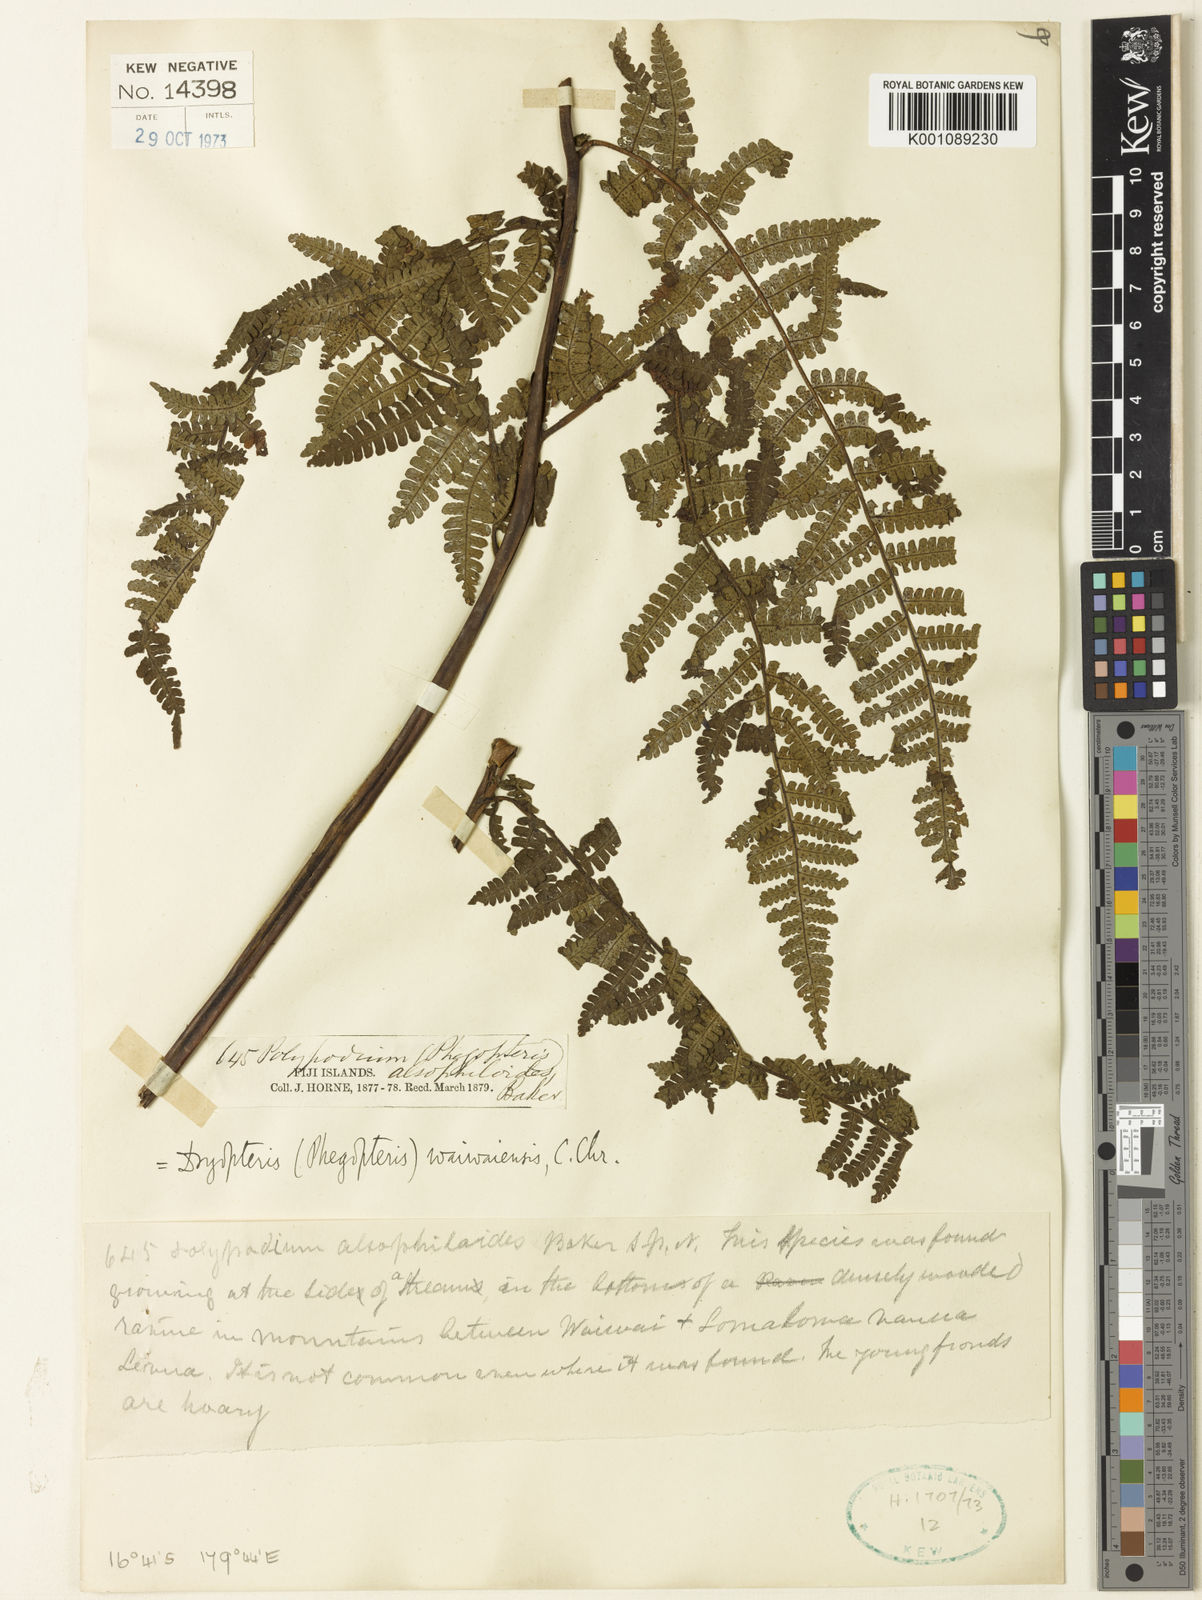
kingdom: Plantae
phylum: Tracheophyta
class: Polypodiopsida
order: Polypodiales
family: Athyriaceae
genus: Deparia
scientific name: Deparia boryana
